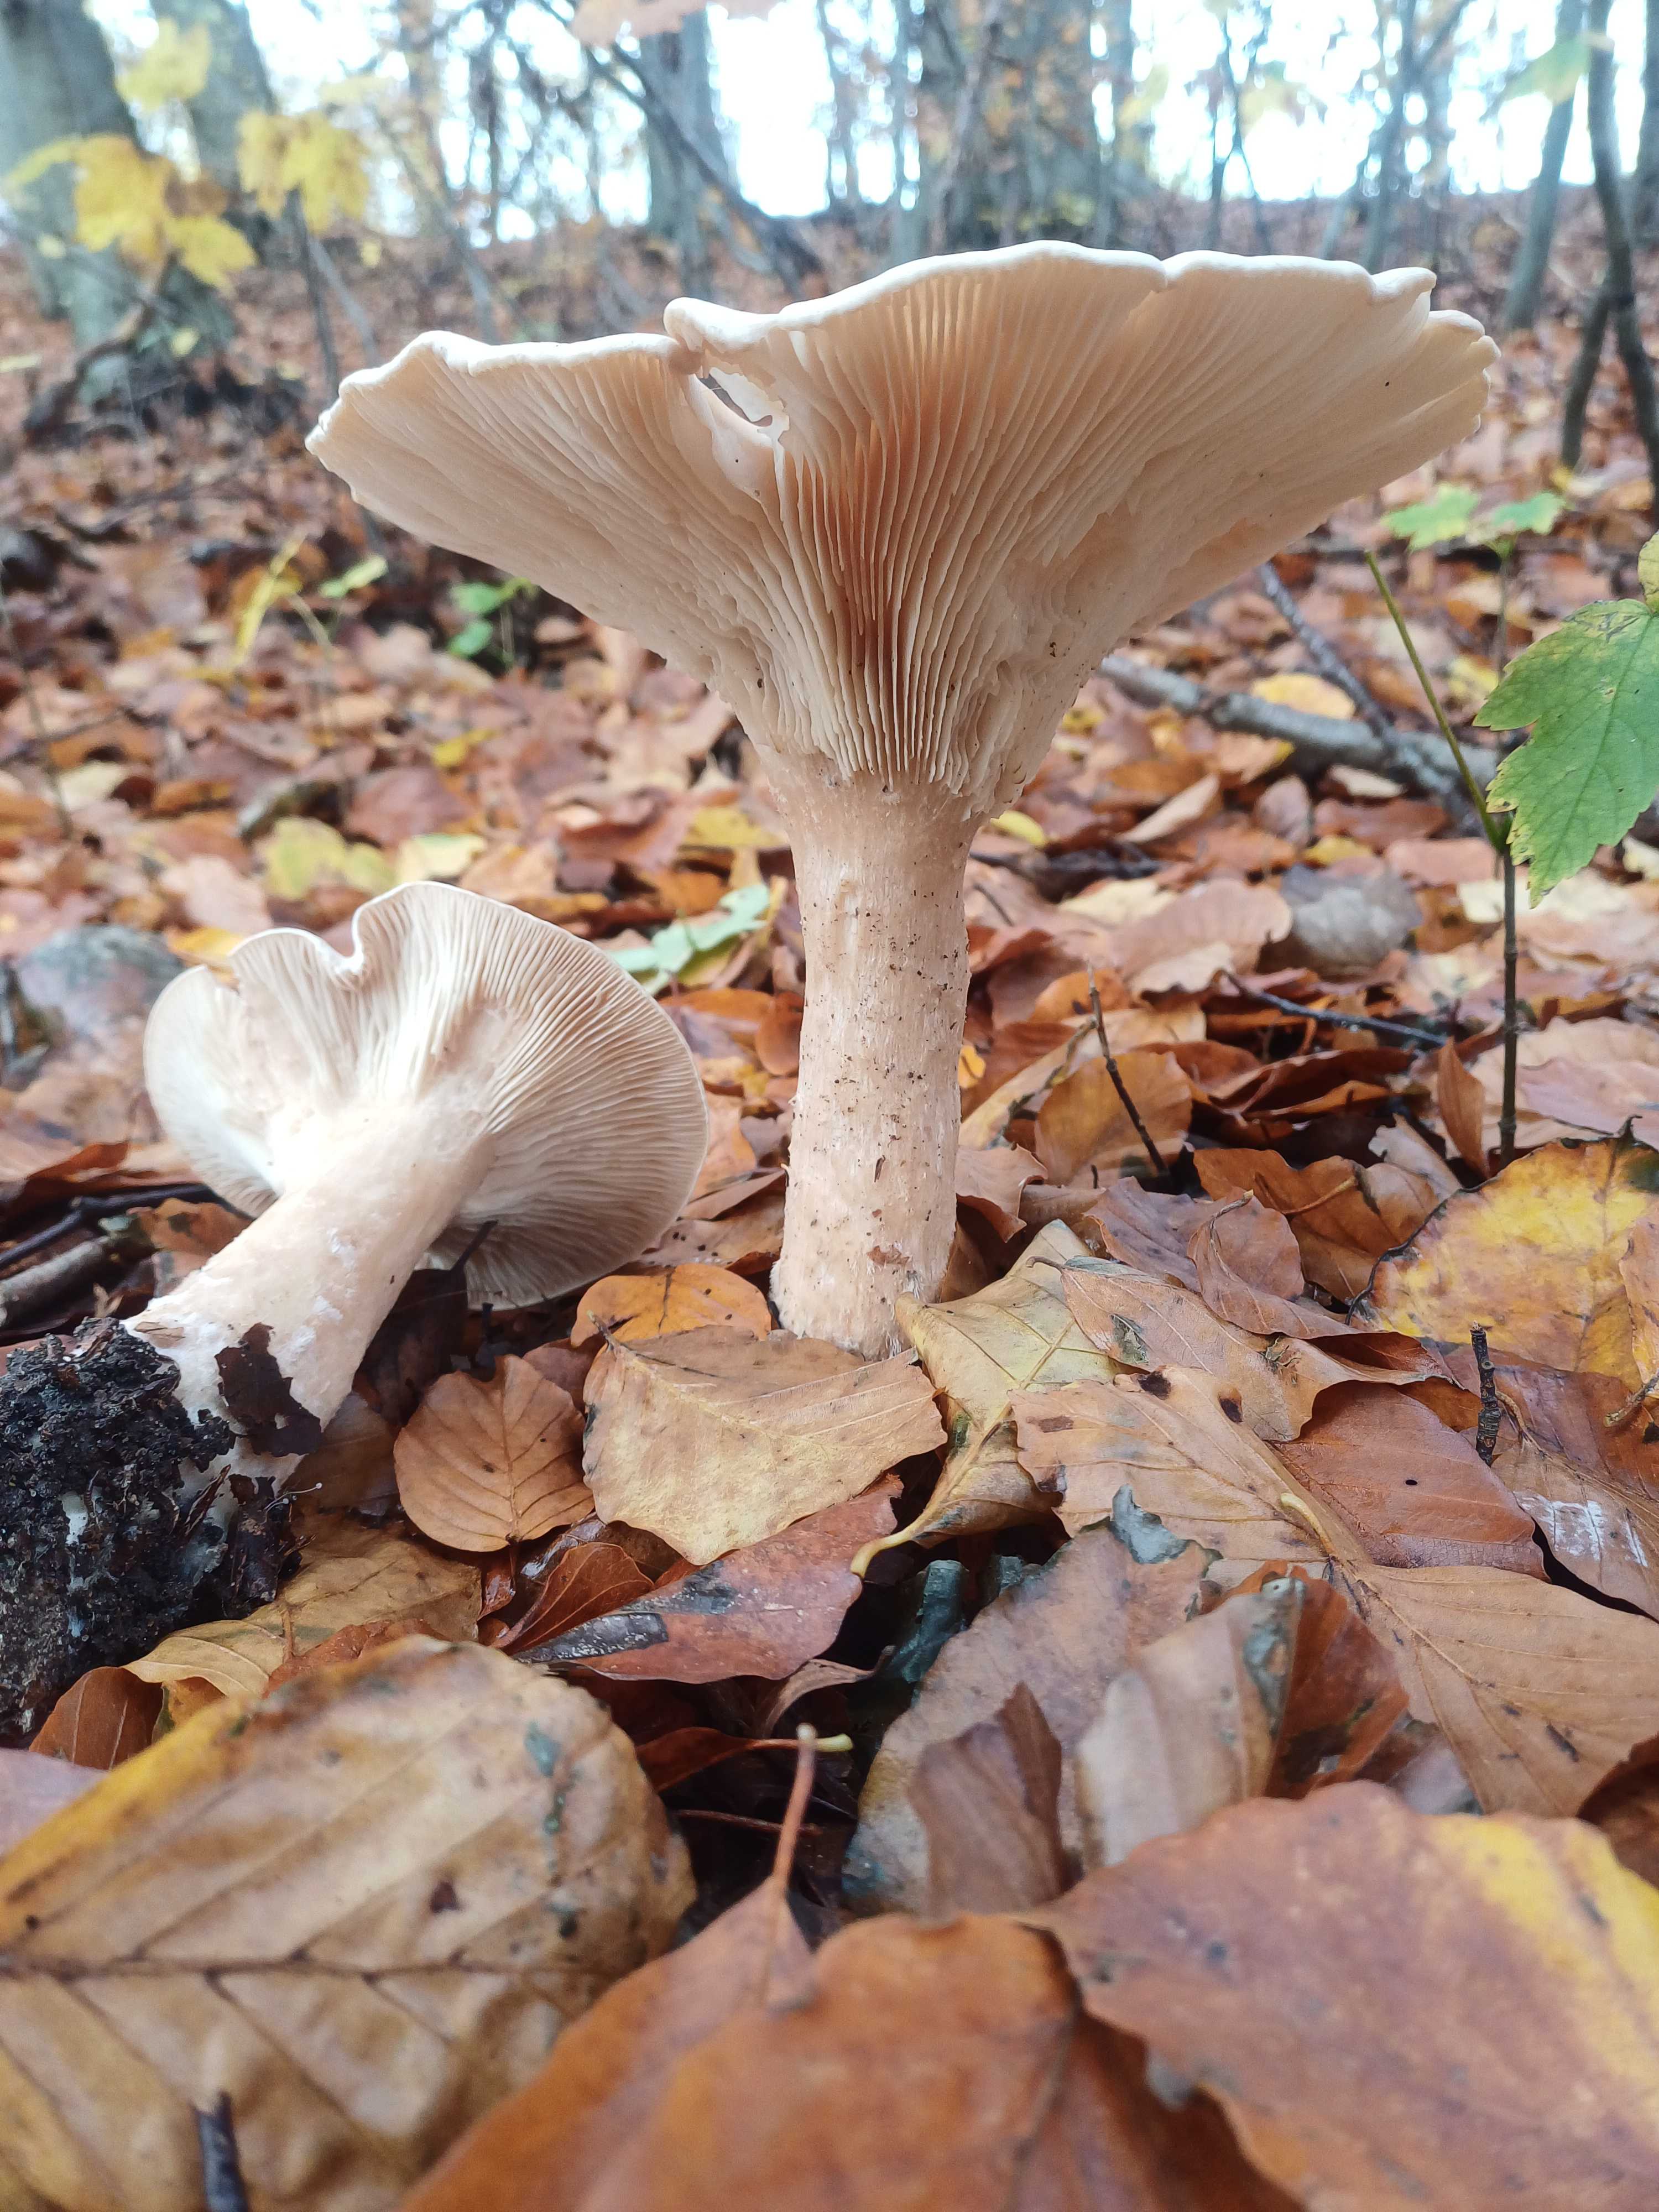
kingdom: Fungi
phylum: Basidiomycota
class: Agaricomycetes
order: Agaricales
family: Tricholomataceae
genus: Infundibulicybe
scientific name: Infundibulicybe geotropa
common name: stor tragthat
